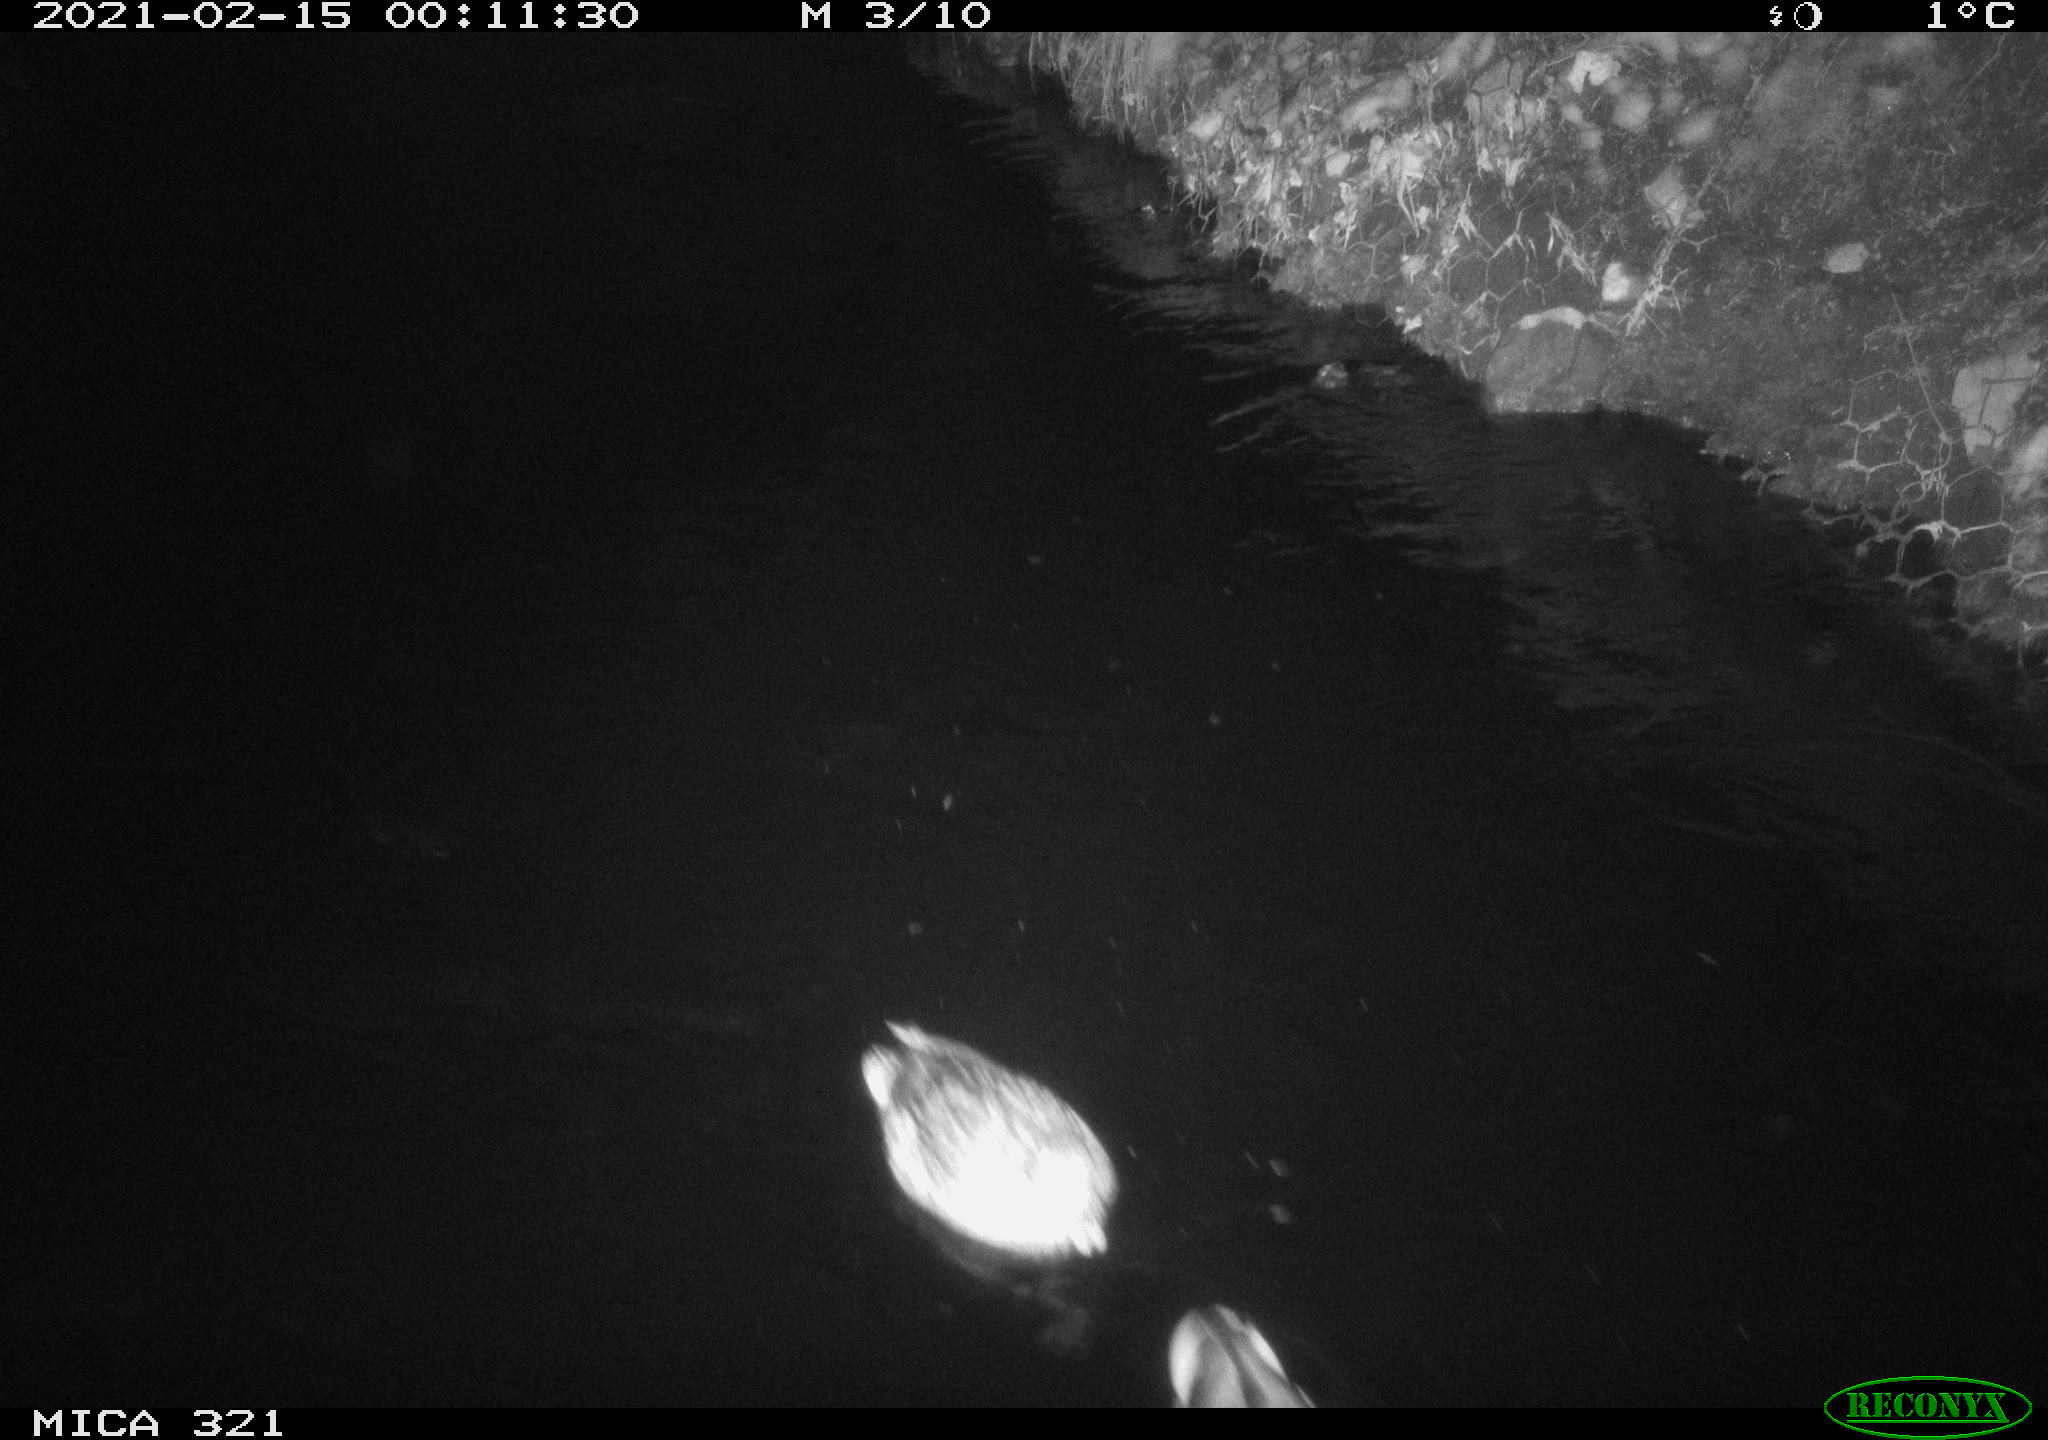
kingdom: Animalia
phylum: Chordata
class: Aves
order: Anseriformes
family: Anatidae
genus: Anas
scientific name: Anas platyrhynchos
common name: Mallard
